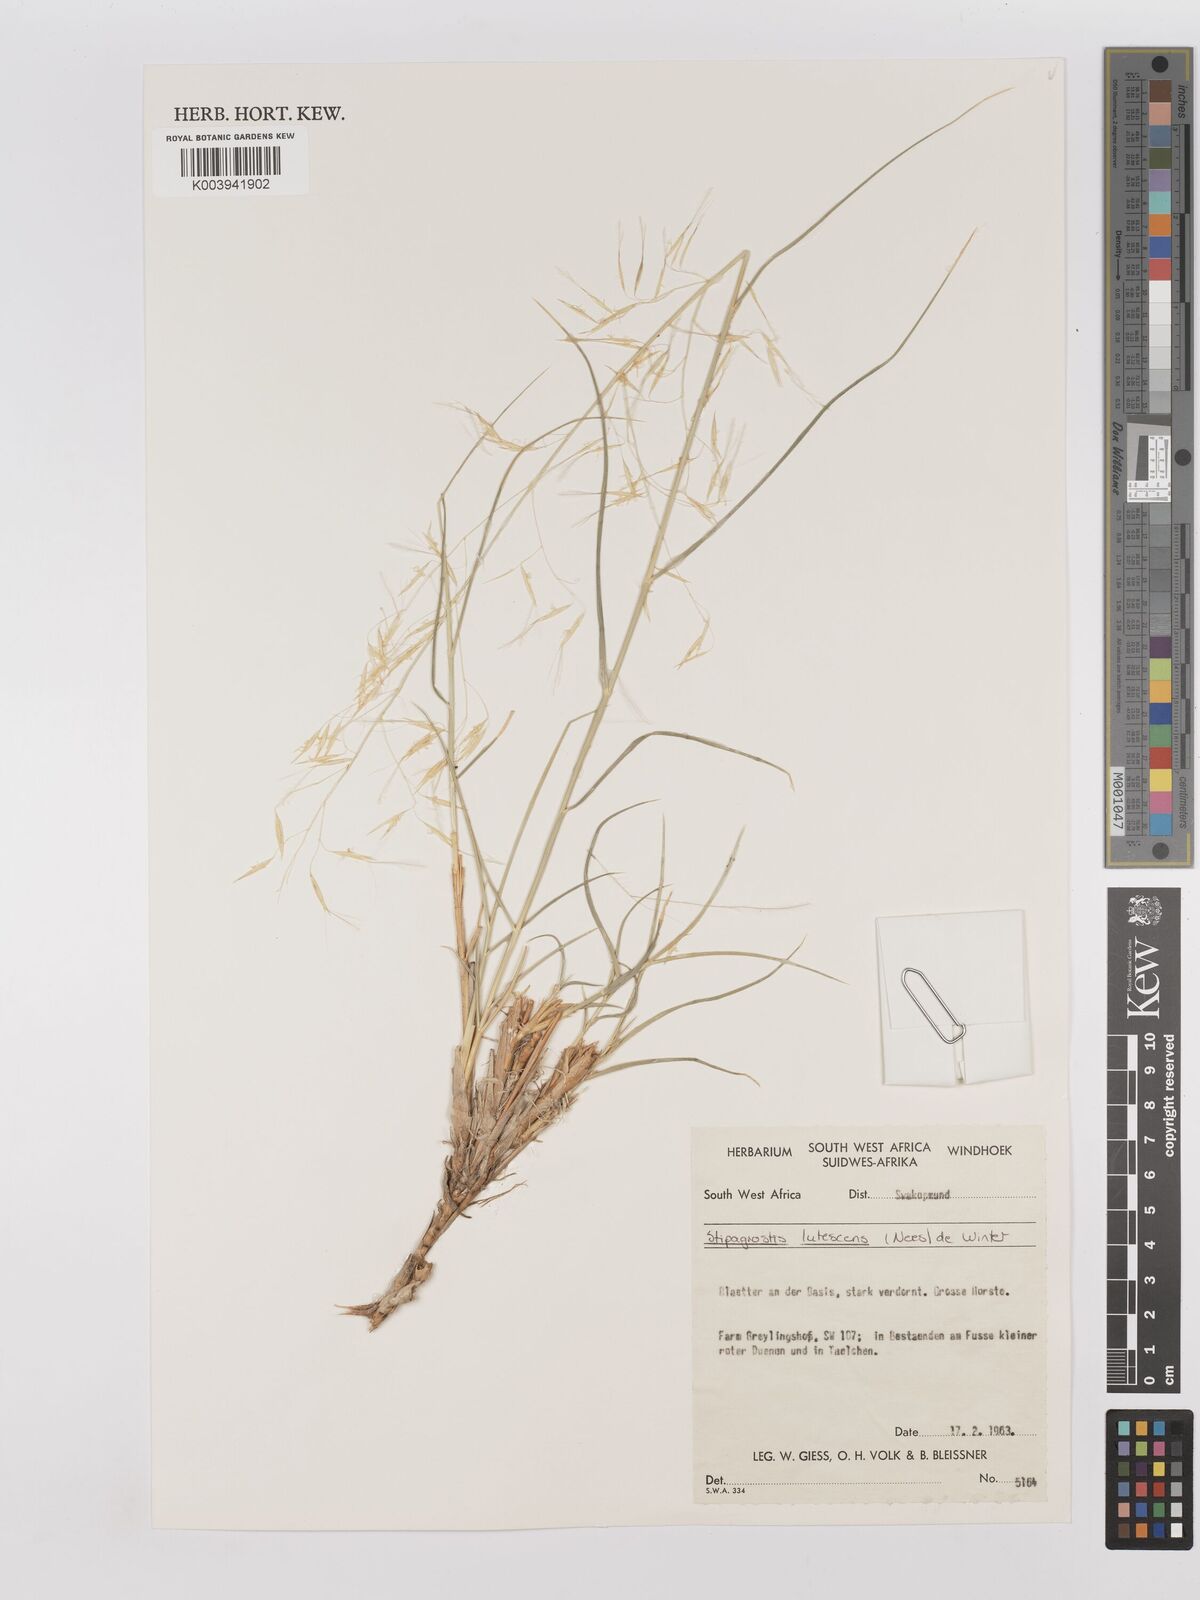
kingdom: Plantae
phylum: Tracheophyta
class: Liliopsida
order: Poales
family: Poaceae
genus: Stipagrostis
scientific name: Stipagrostis lutescens
